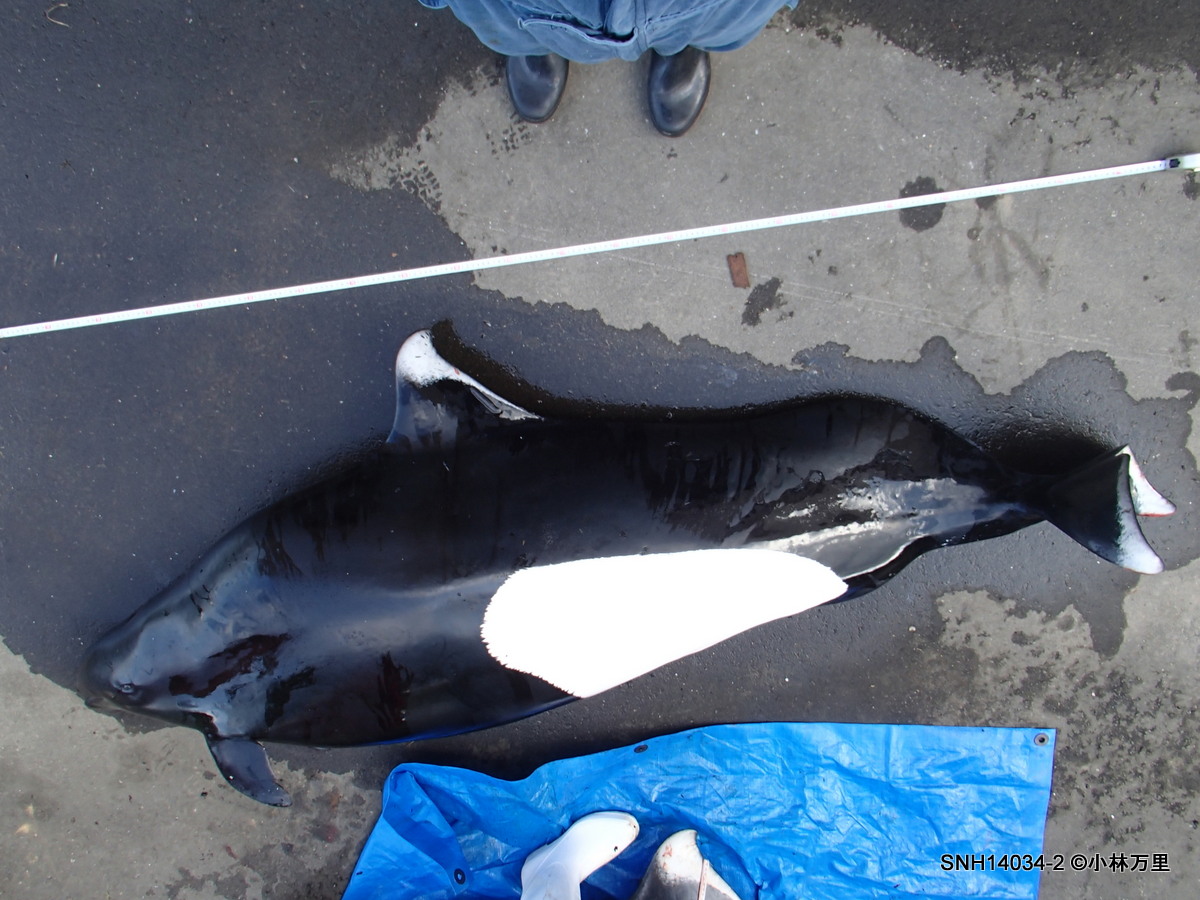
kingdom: Animalia
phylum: Chordata
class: Mammalia
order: Cetacea
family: Phocoenidae
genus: Phocoenoides
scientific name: Phocoenoides dalli
